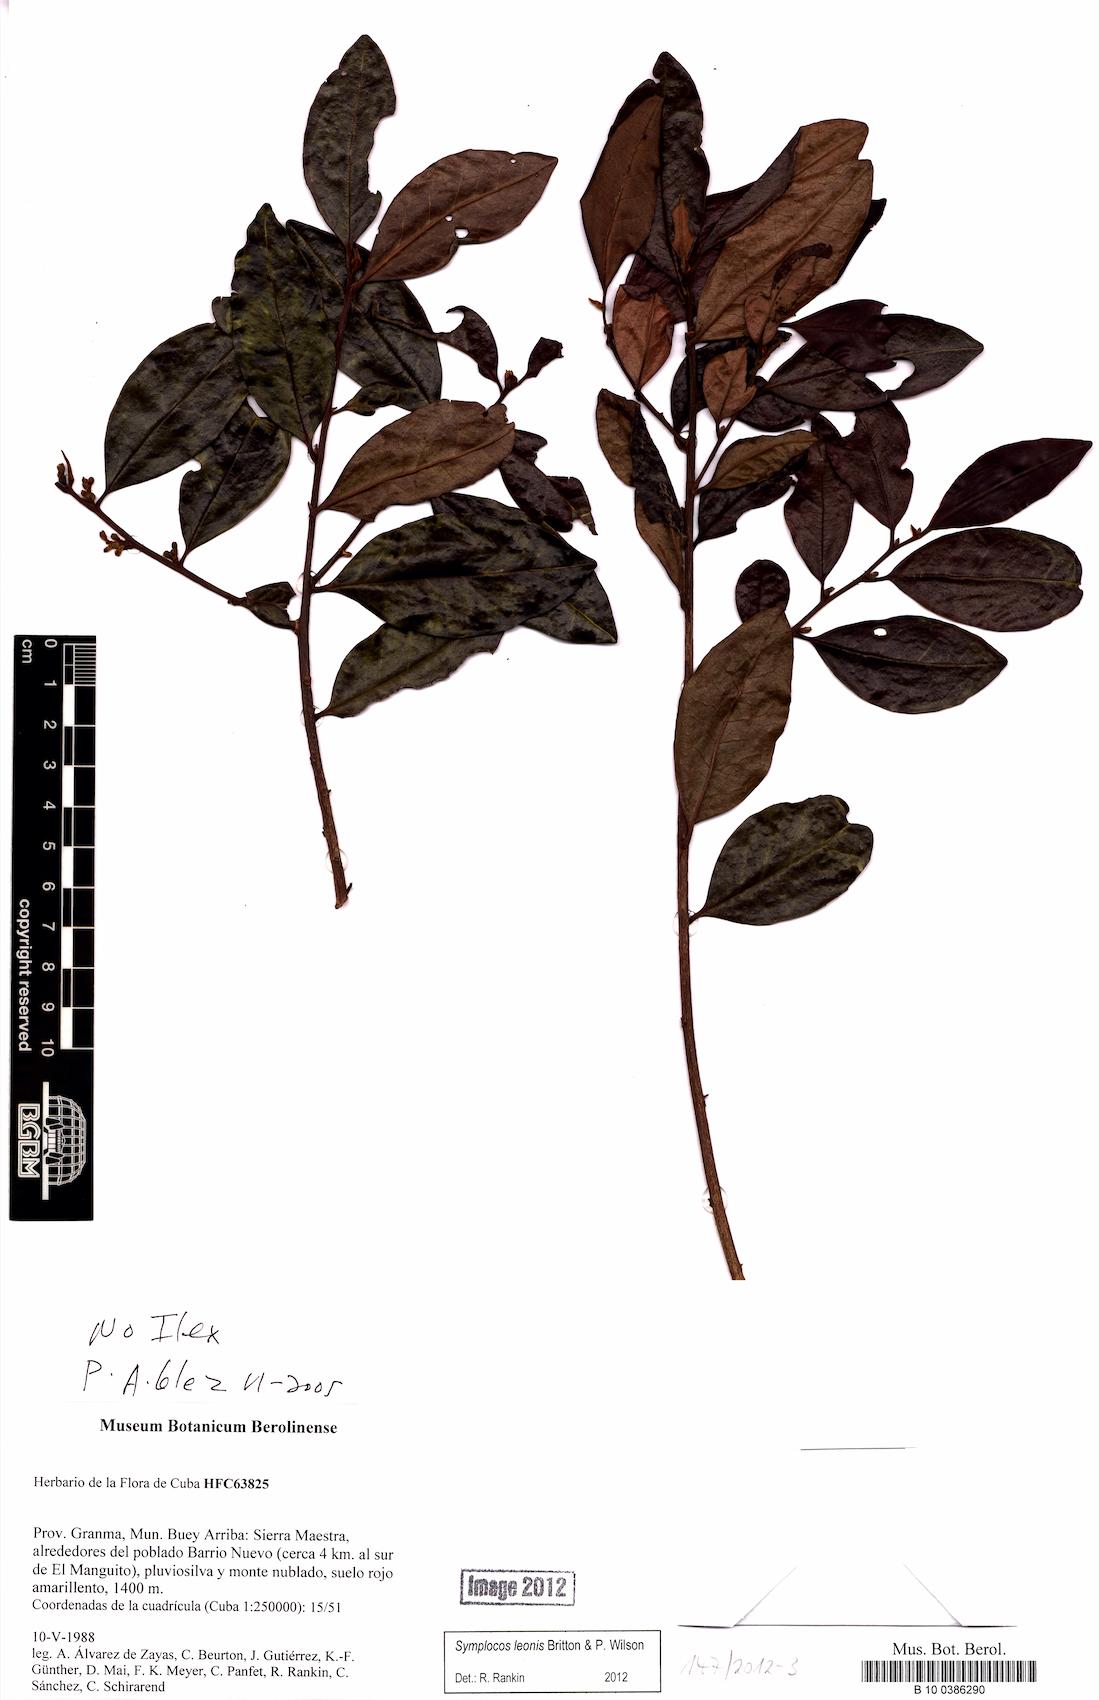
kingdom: Plantae
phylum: Tracheophyta
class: Magnoliopsida
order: Ericales
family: Symplocaceae
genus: Symplocos
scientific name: Symplocos leonis
